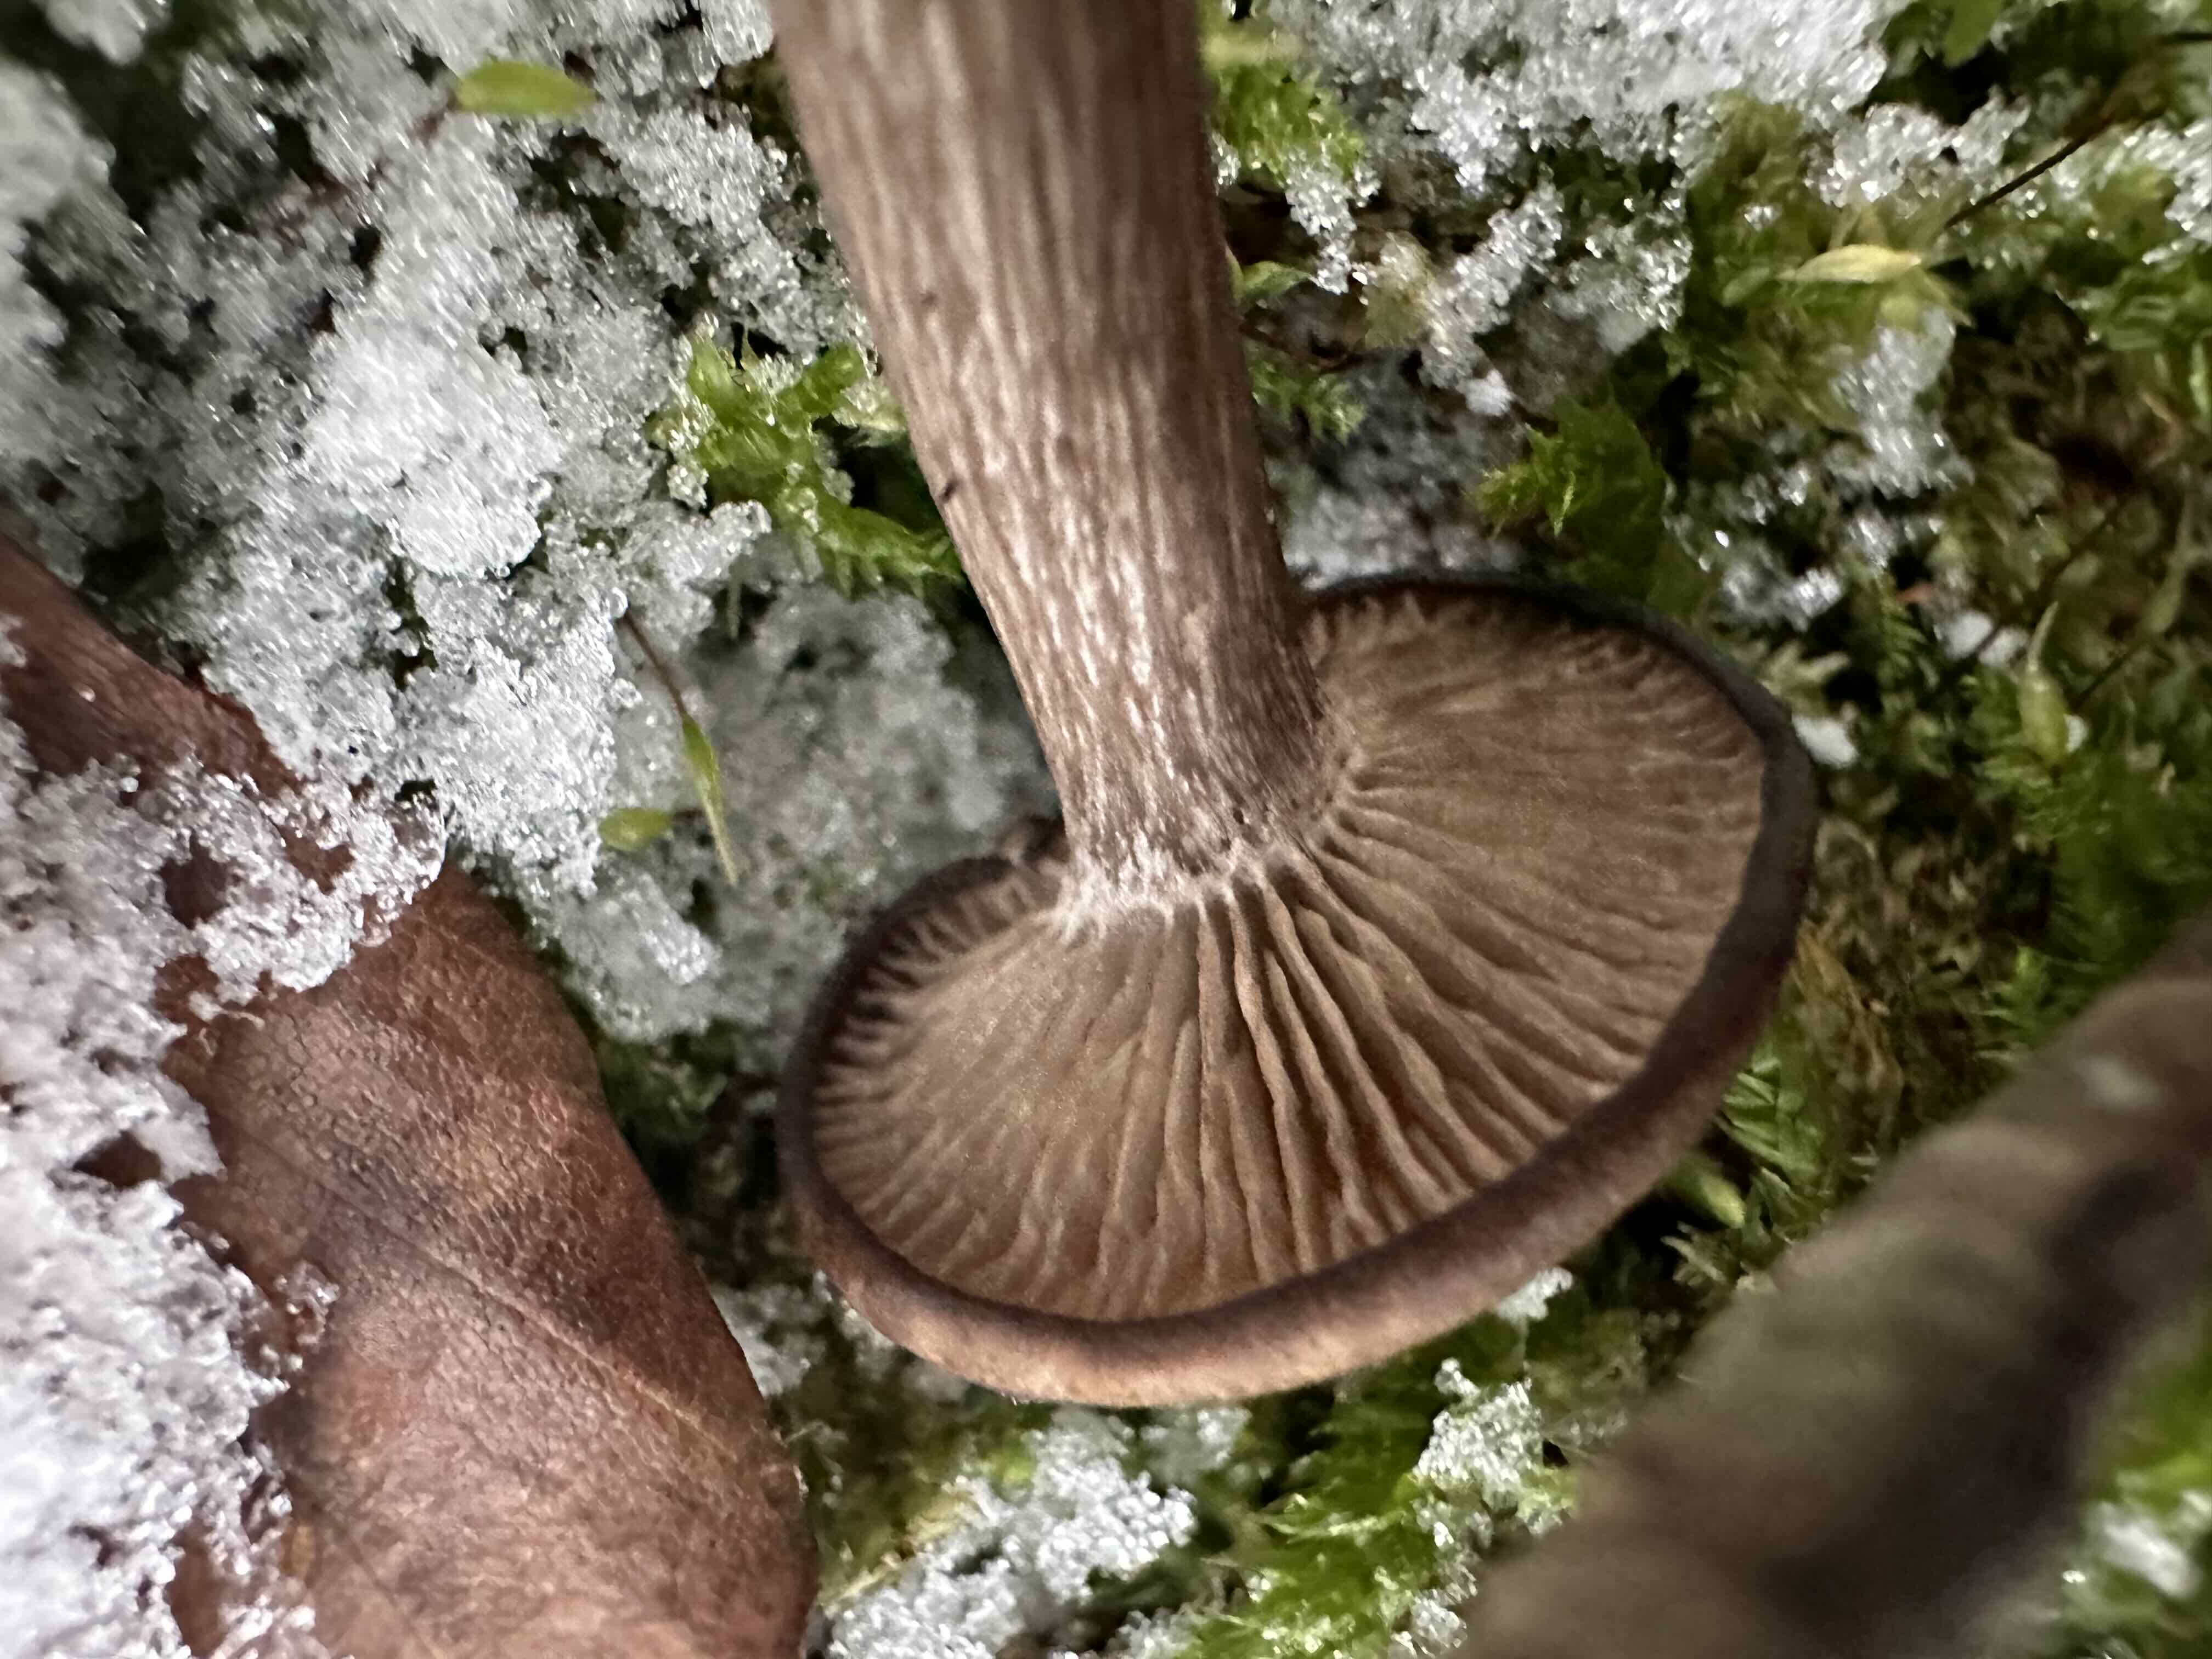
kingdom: Fungi
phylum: Basidiomycota
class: Agaricomycetes
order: Agaricales
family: Pseudoclitocybaceae
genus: Pseudoclitocybe
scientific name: Pseudoclitocybe cyathiformis
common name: almindelig bægertragthat
